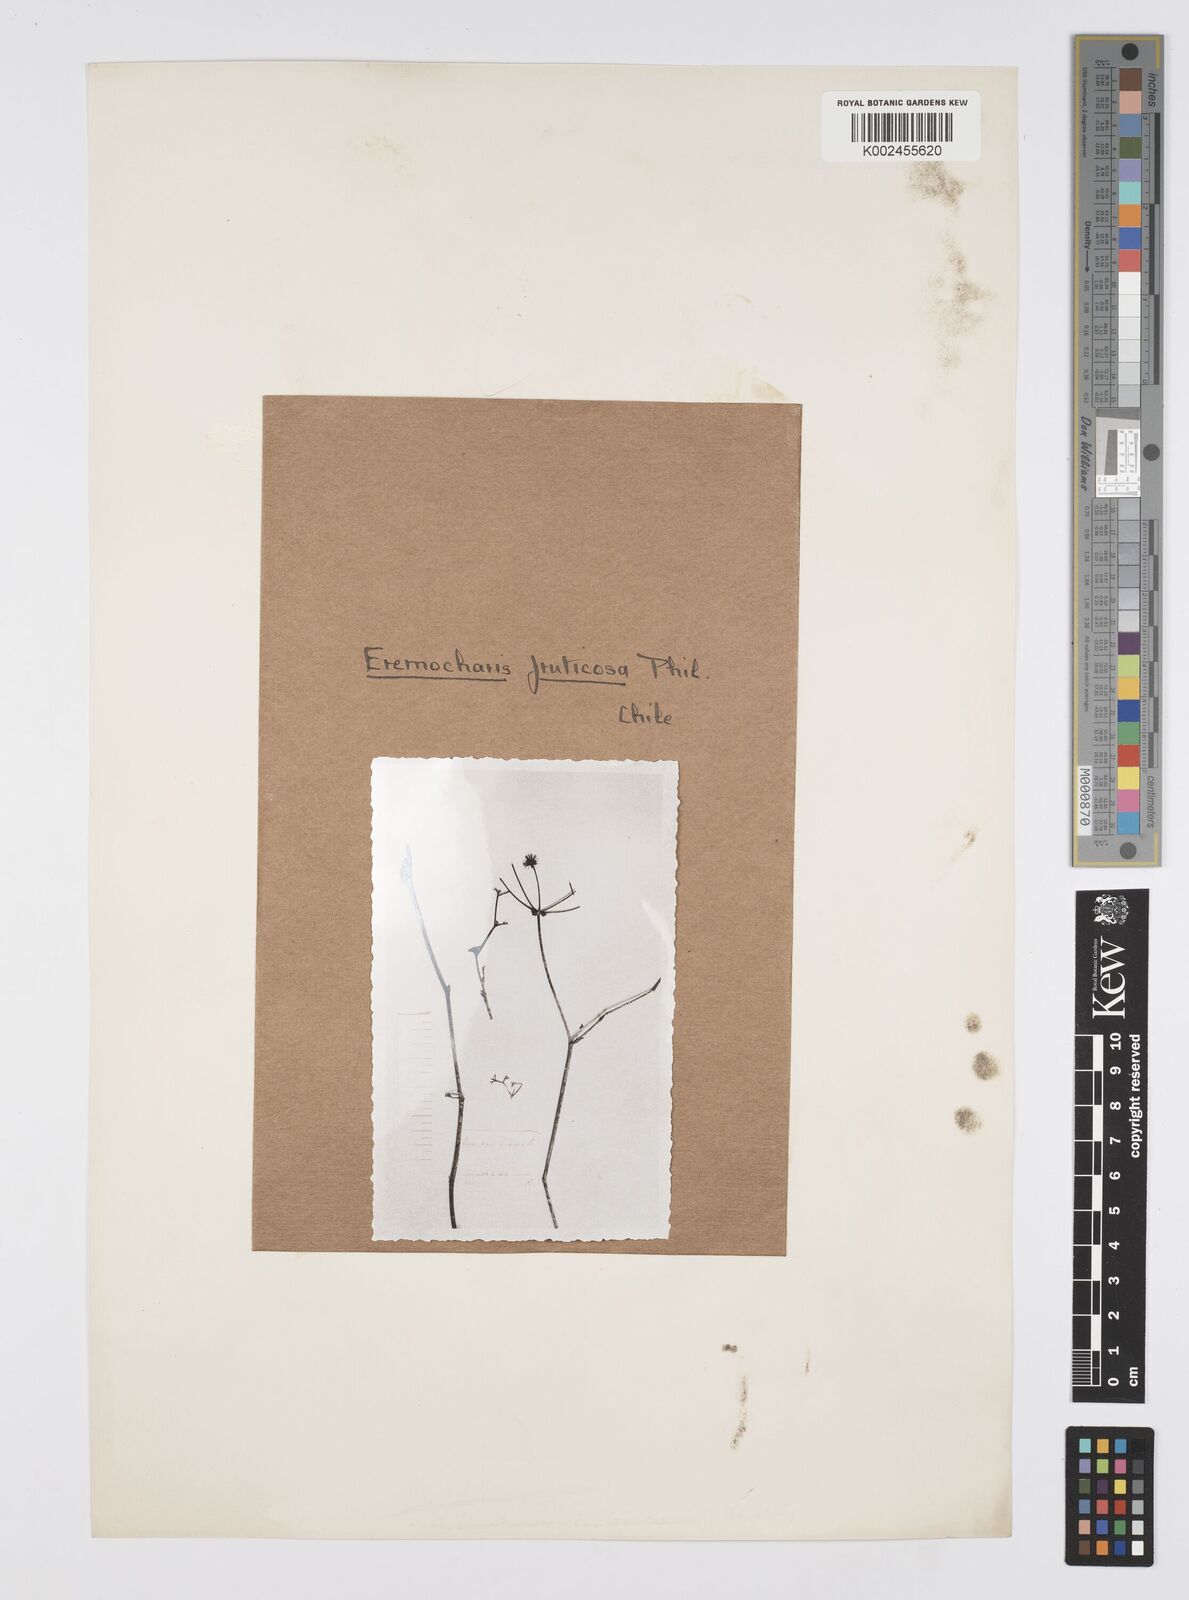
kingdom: Plantae
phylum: Tracheophyta
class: Magnoliopsida
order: Apiales
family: Apiaceae
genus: Eremocharis
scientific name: Eremocharis fruticosa
